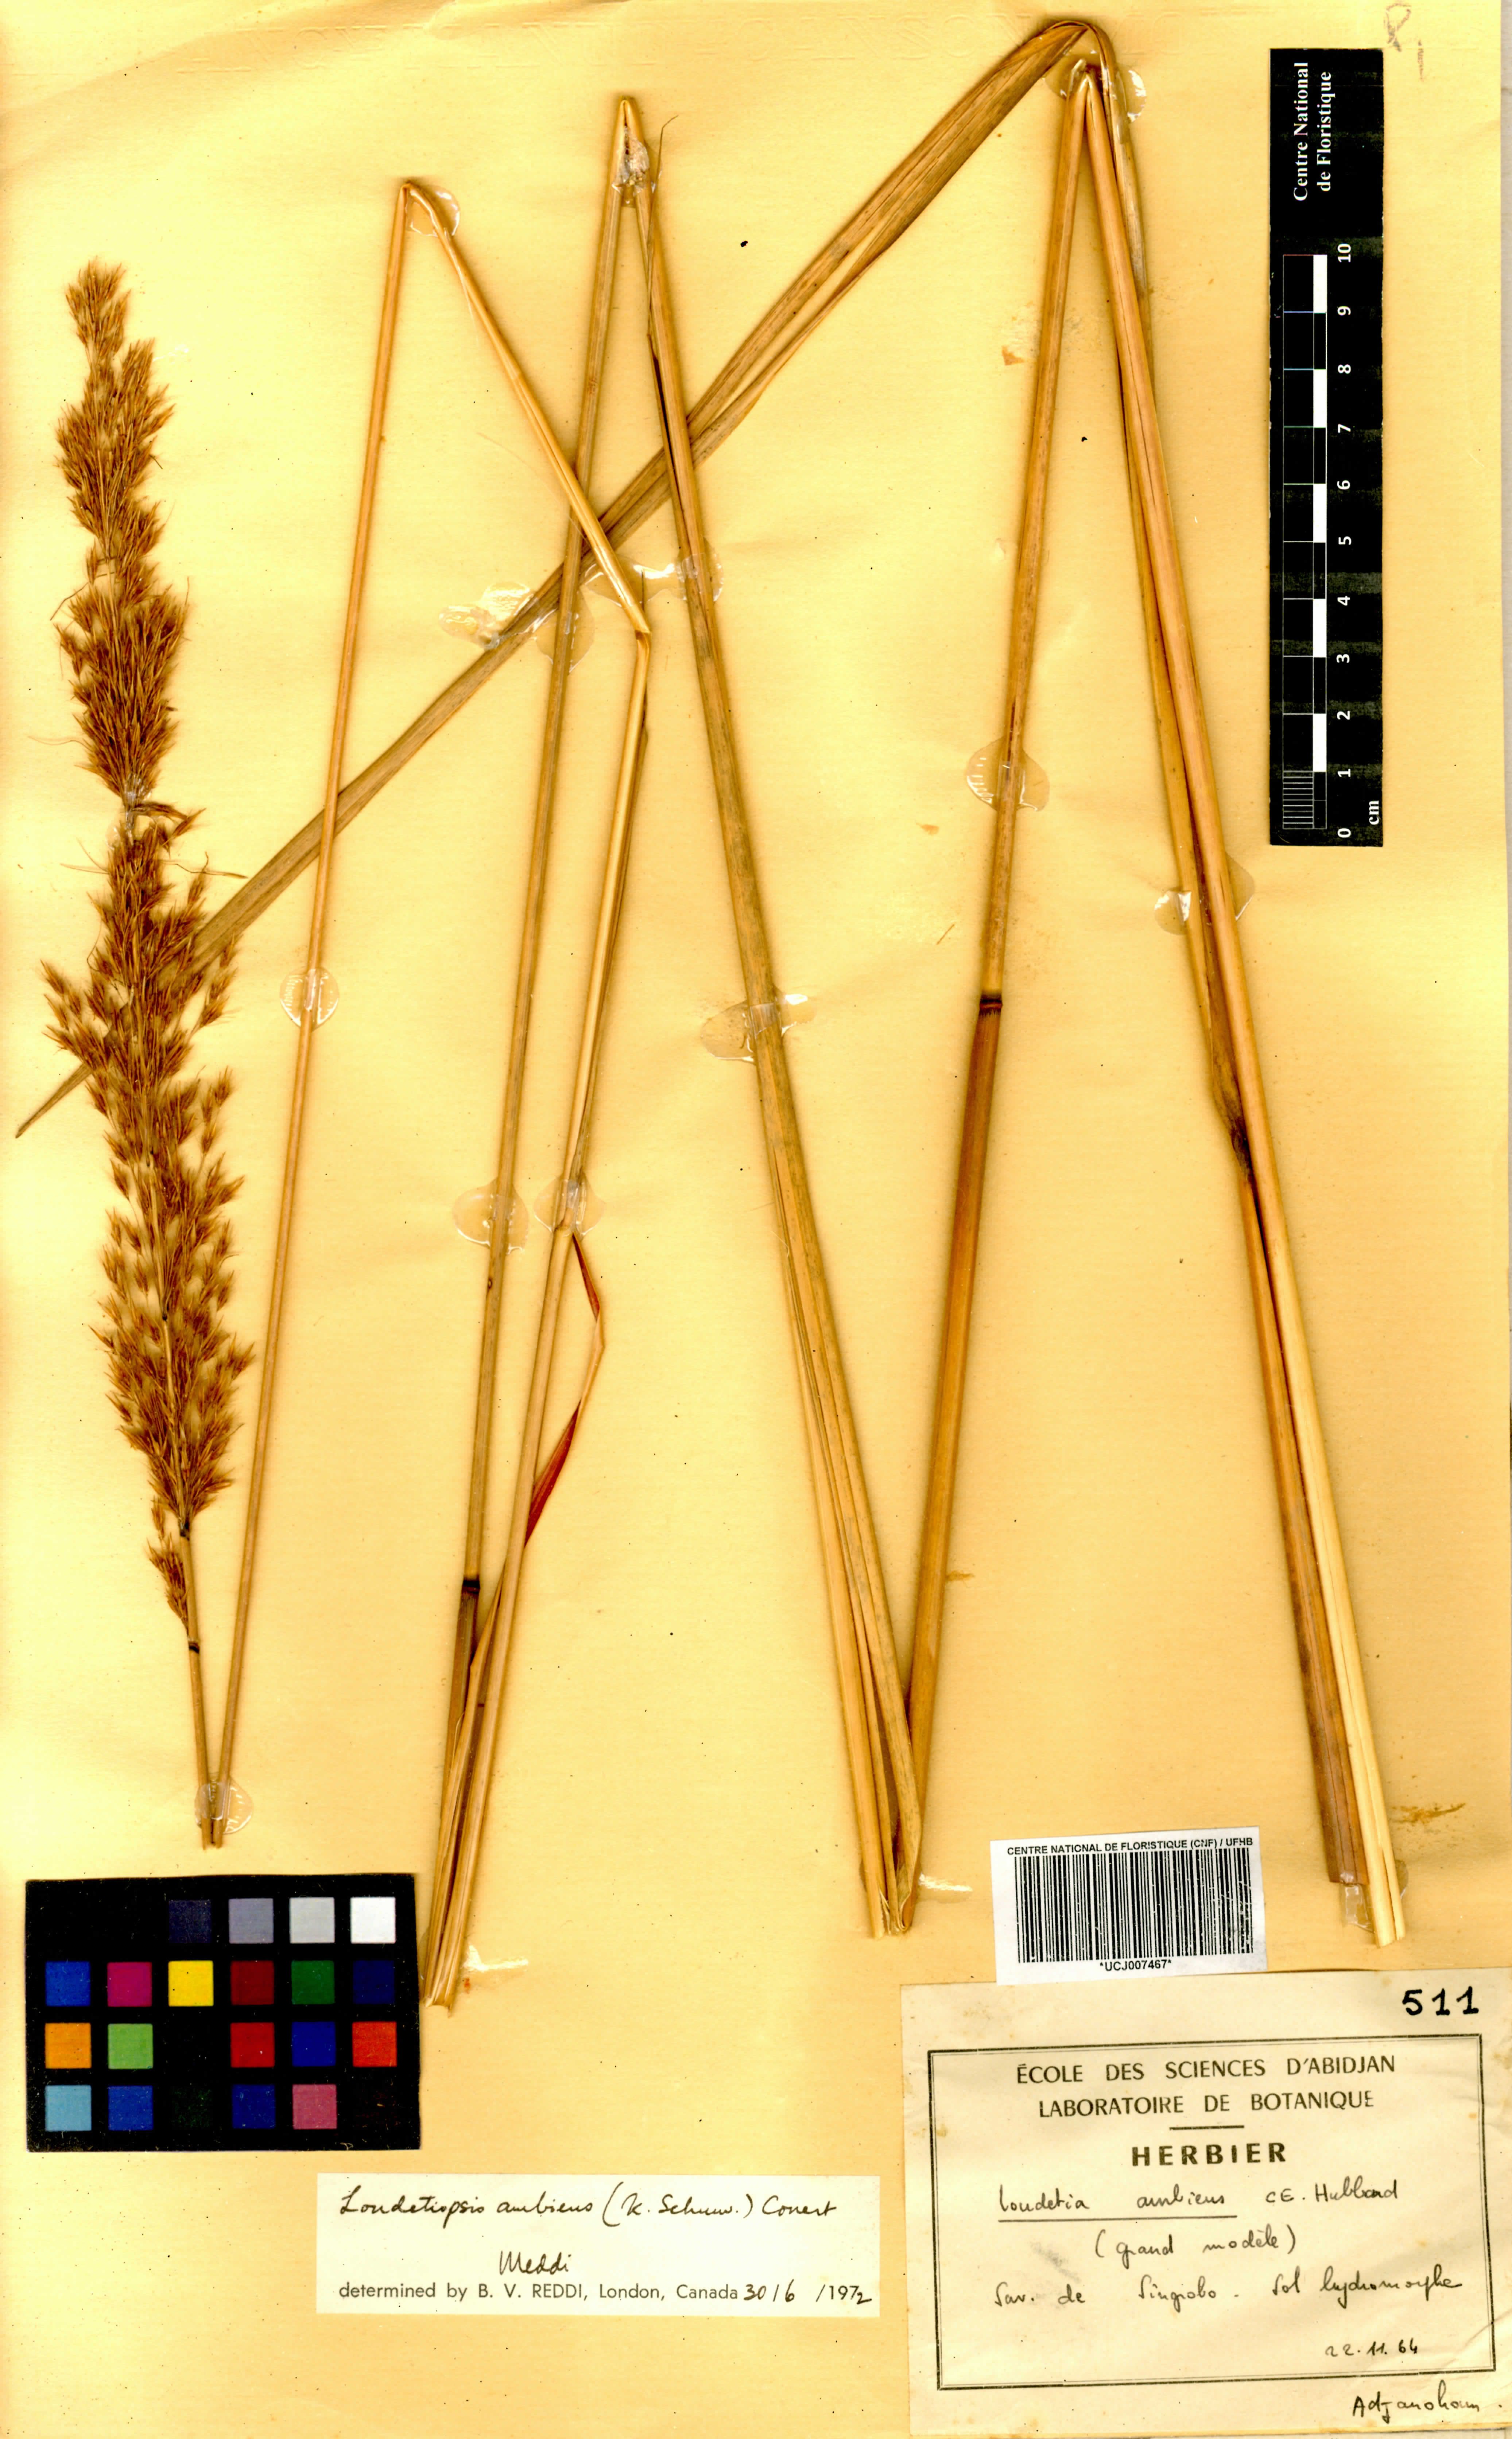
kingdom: Plantae
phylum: Tracheophyta
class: Liliopsida
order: Poales
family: Poaceae
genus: Loudetiopsis
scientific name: Loudetiopsis ambiens
